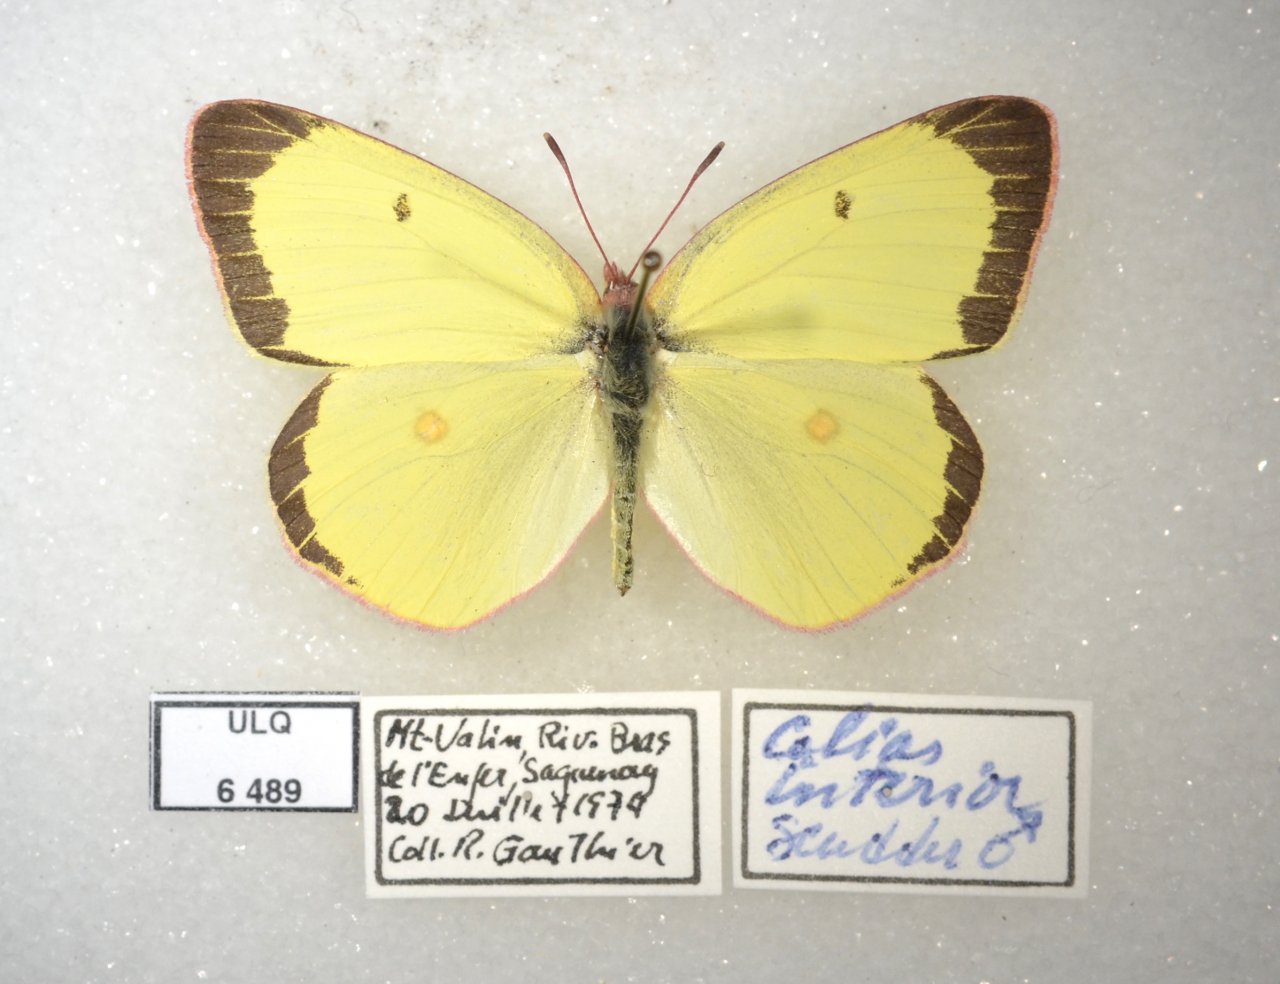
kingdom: Animalia
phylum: Arthropoda
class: Insecta
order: Lepidoptera
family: Pieridae
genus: Colias
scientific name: Colias interior
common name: Pink-edged Sulphur
